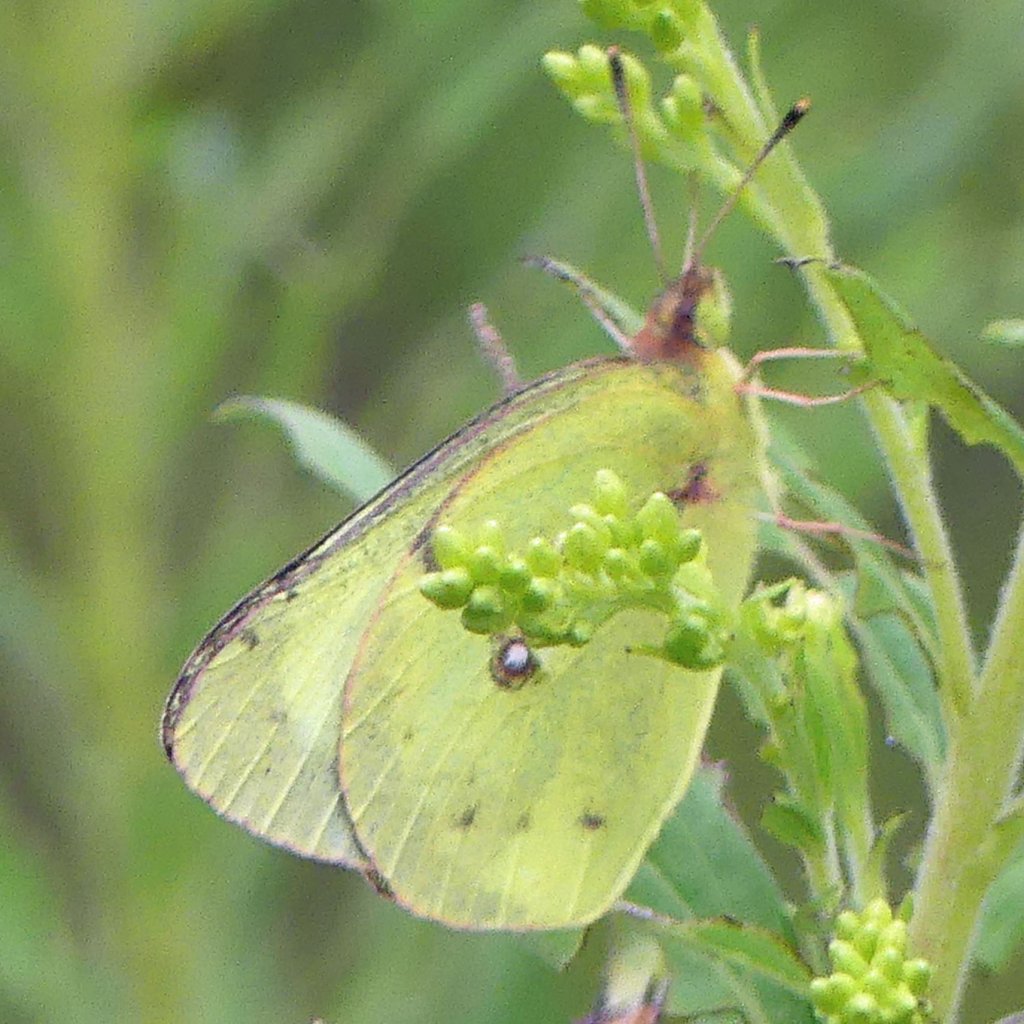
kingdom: Animalia
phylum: Arthropoda
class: Insecta
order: Lepidoptera
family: Pieridae
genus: Colias
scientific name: Colias philodice
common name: Clouded Sulphur
